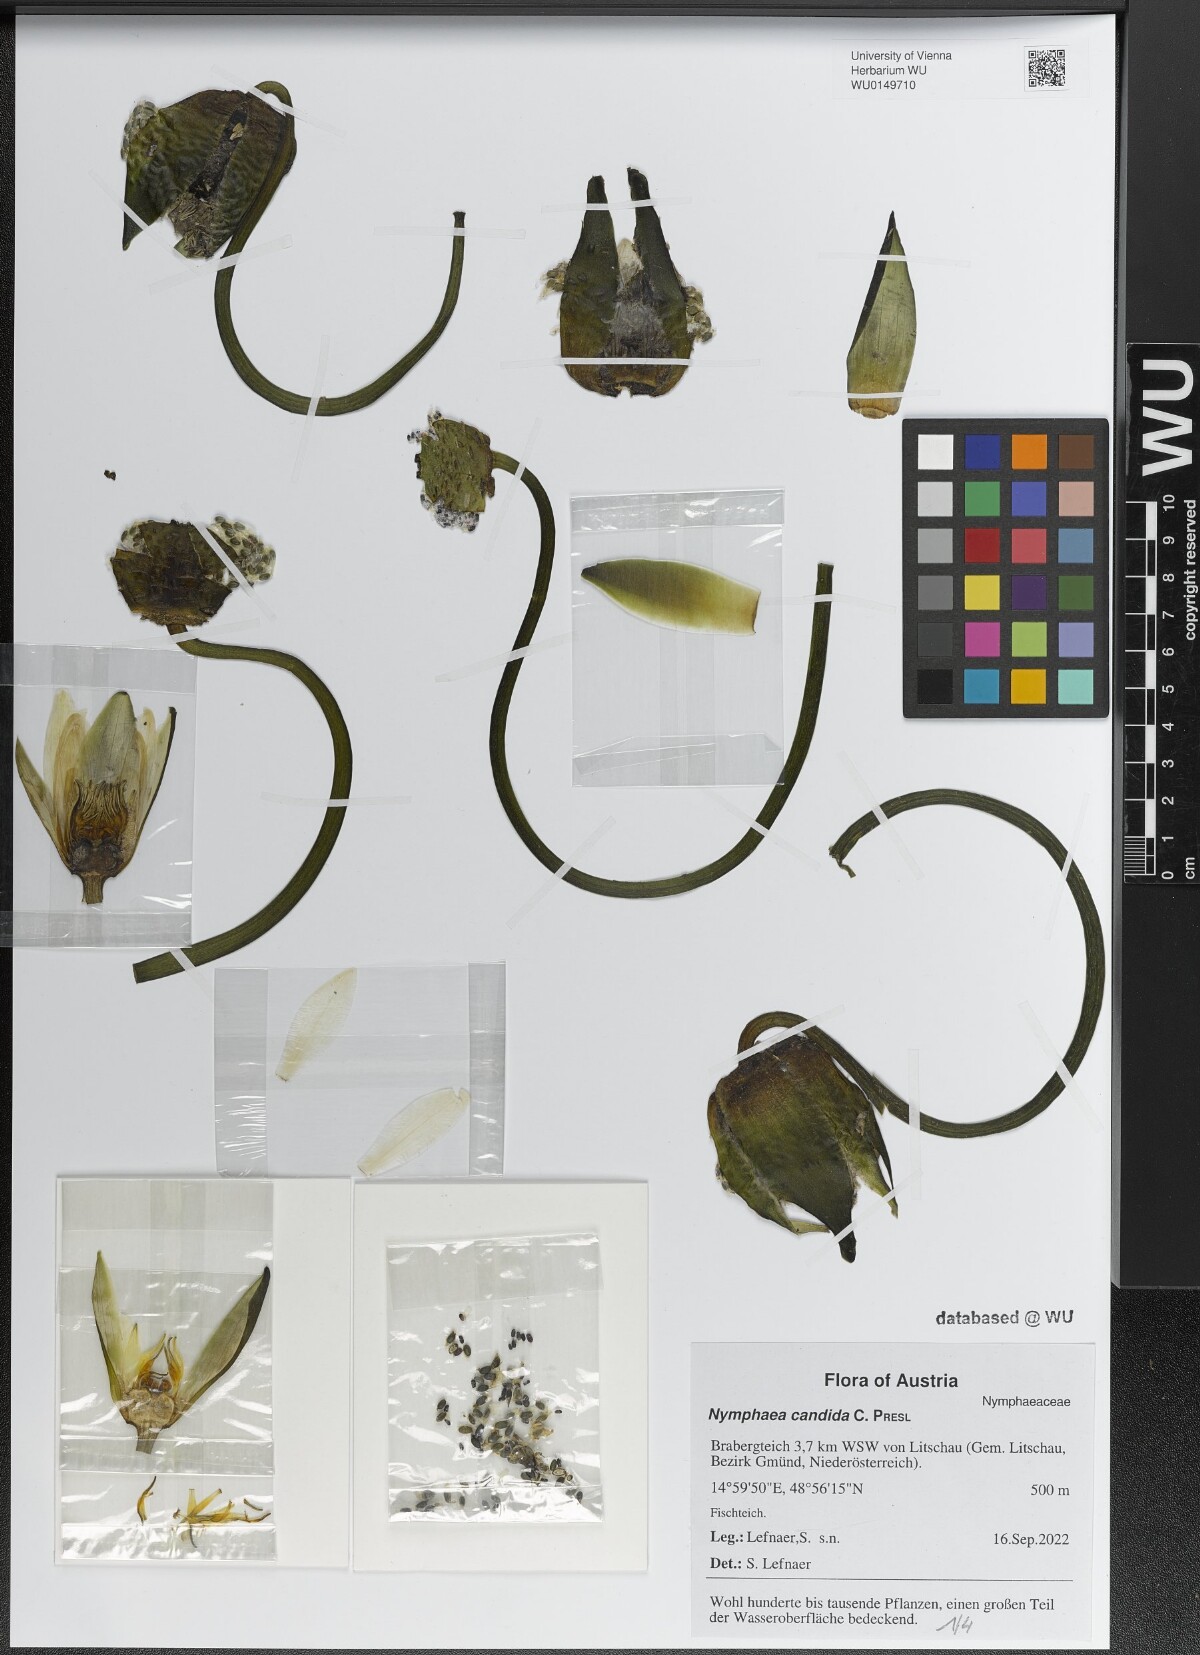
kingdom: Plantae
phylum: Tracheophyta
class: Magnoliopsida
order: Nymphaeales
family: Nymphaeaceae
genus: Nymphaea
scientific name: Nymphaea candida
